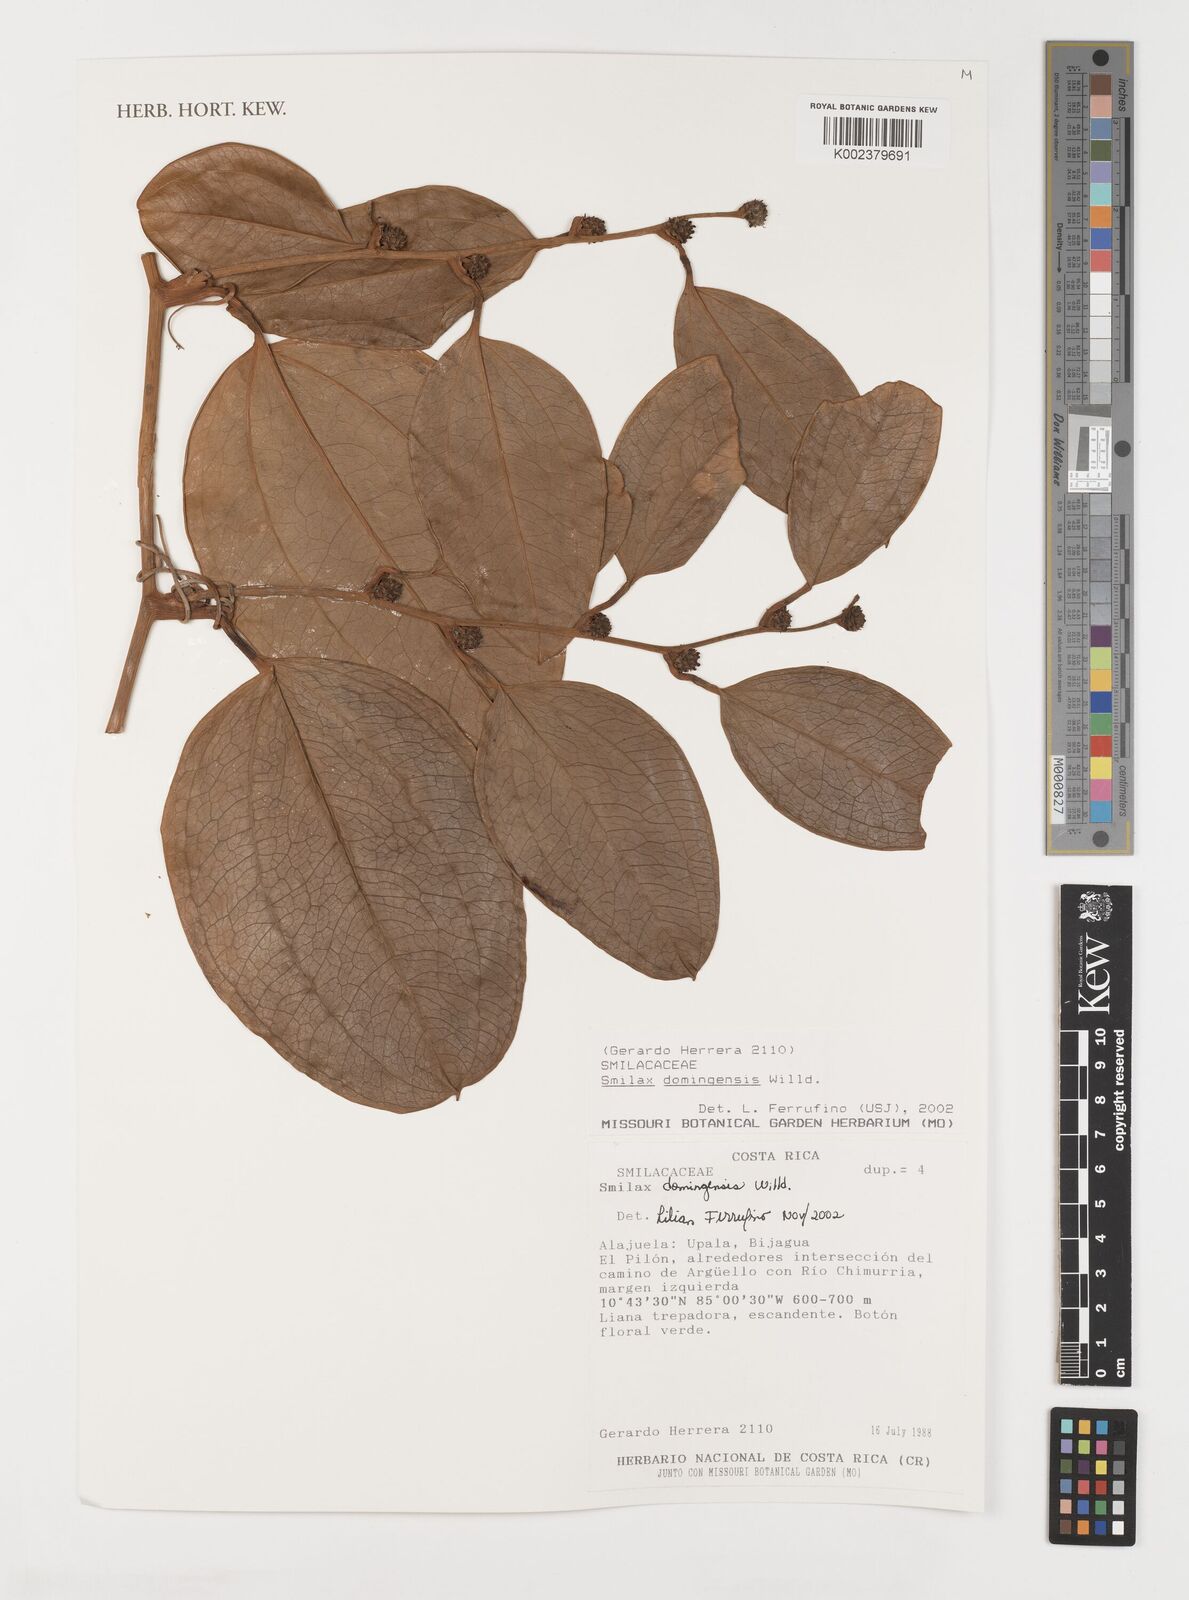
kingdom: Plantae
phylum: Tracheophyta
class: Liliopsida
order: Liliales
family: Smilacaceae
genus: Smilax
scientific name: Smilax domingensis
